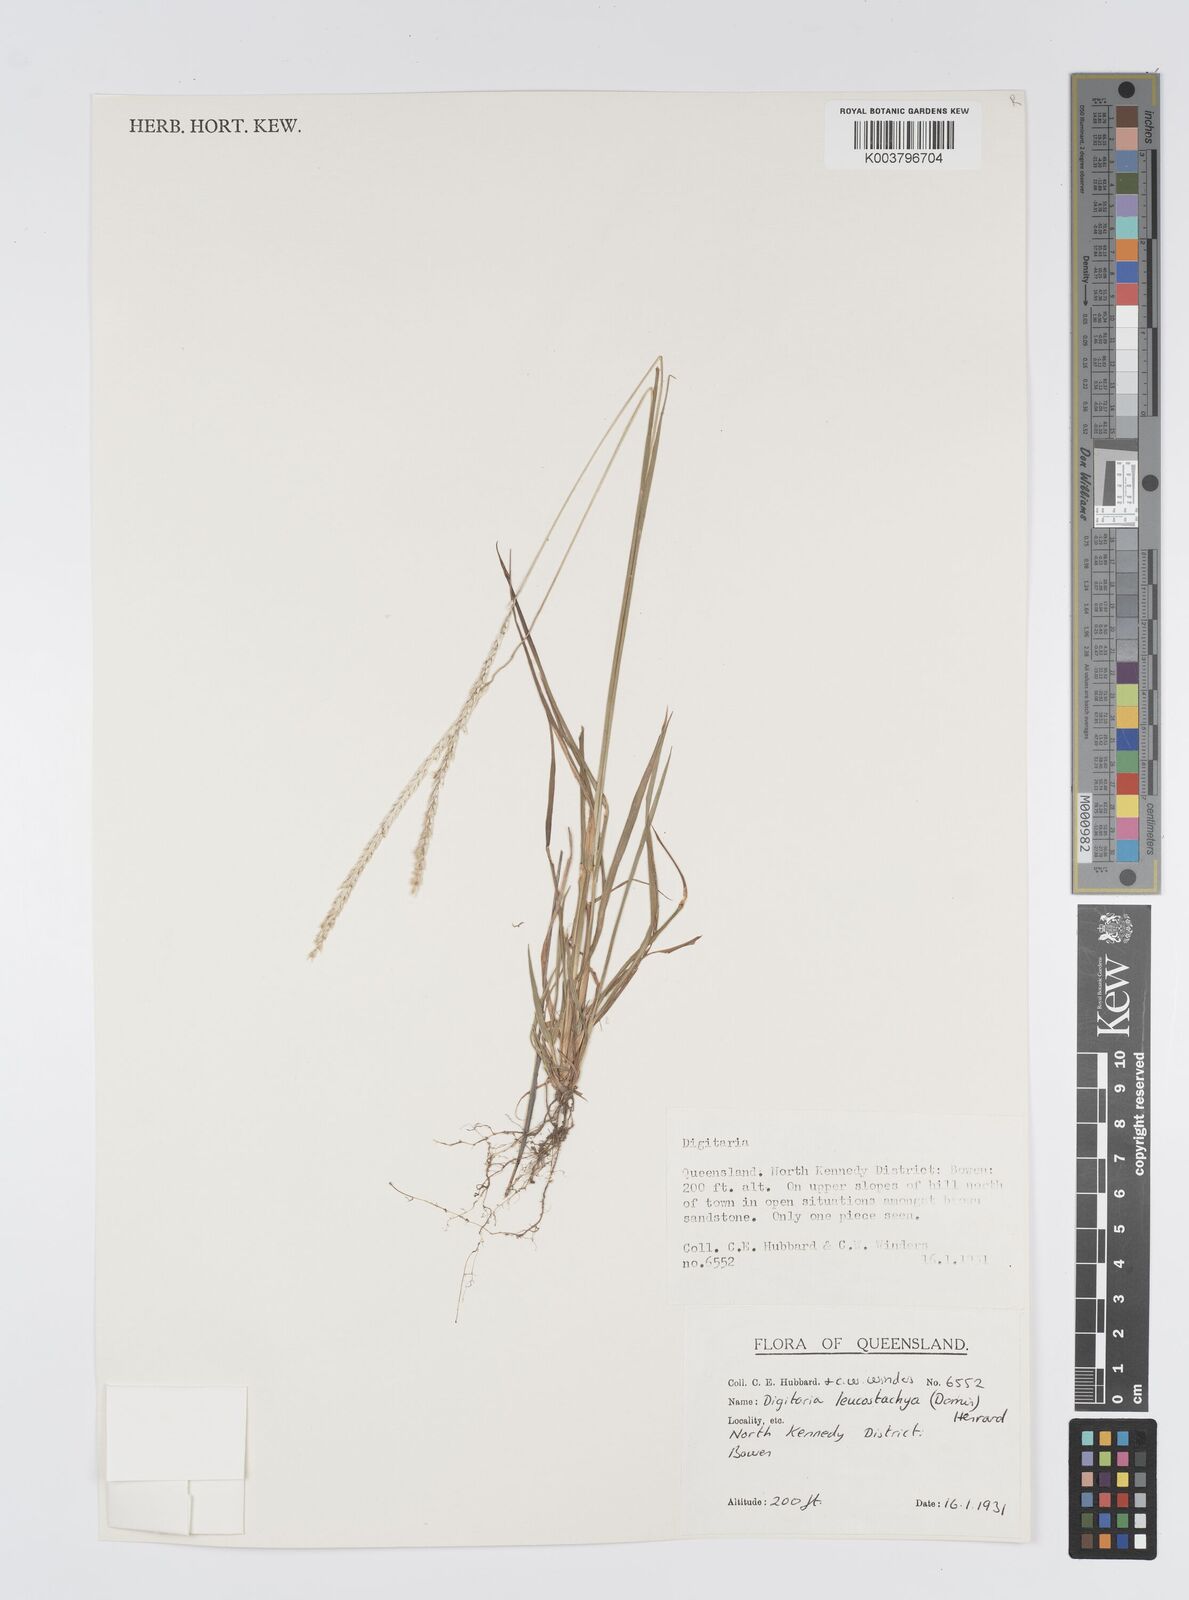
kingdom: Plantae
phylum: Tracheophyta
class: Liliopsida
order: Poales
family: Poaceae
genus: Digitaria
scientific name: Digitaria leucostachya
